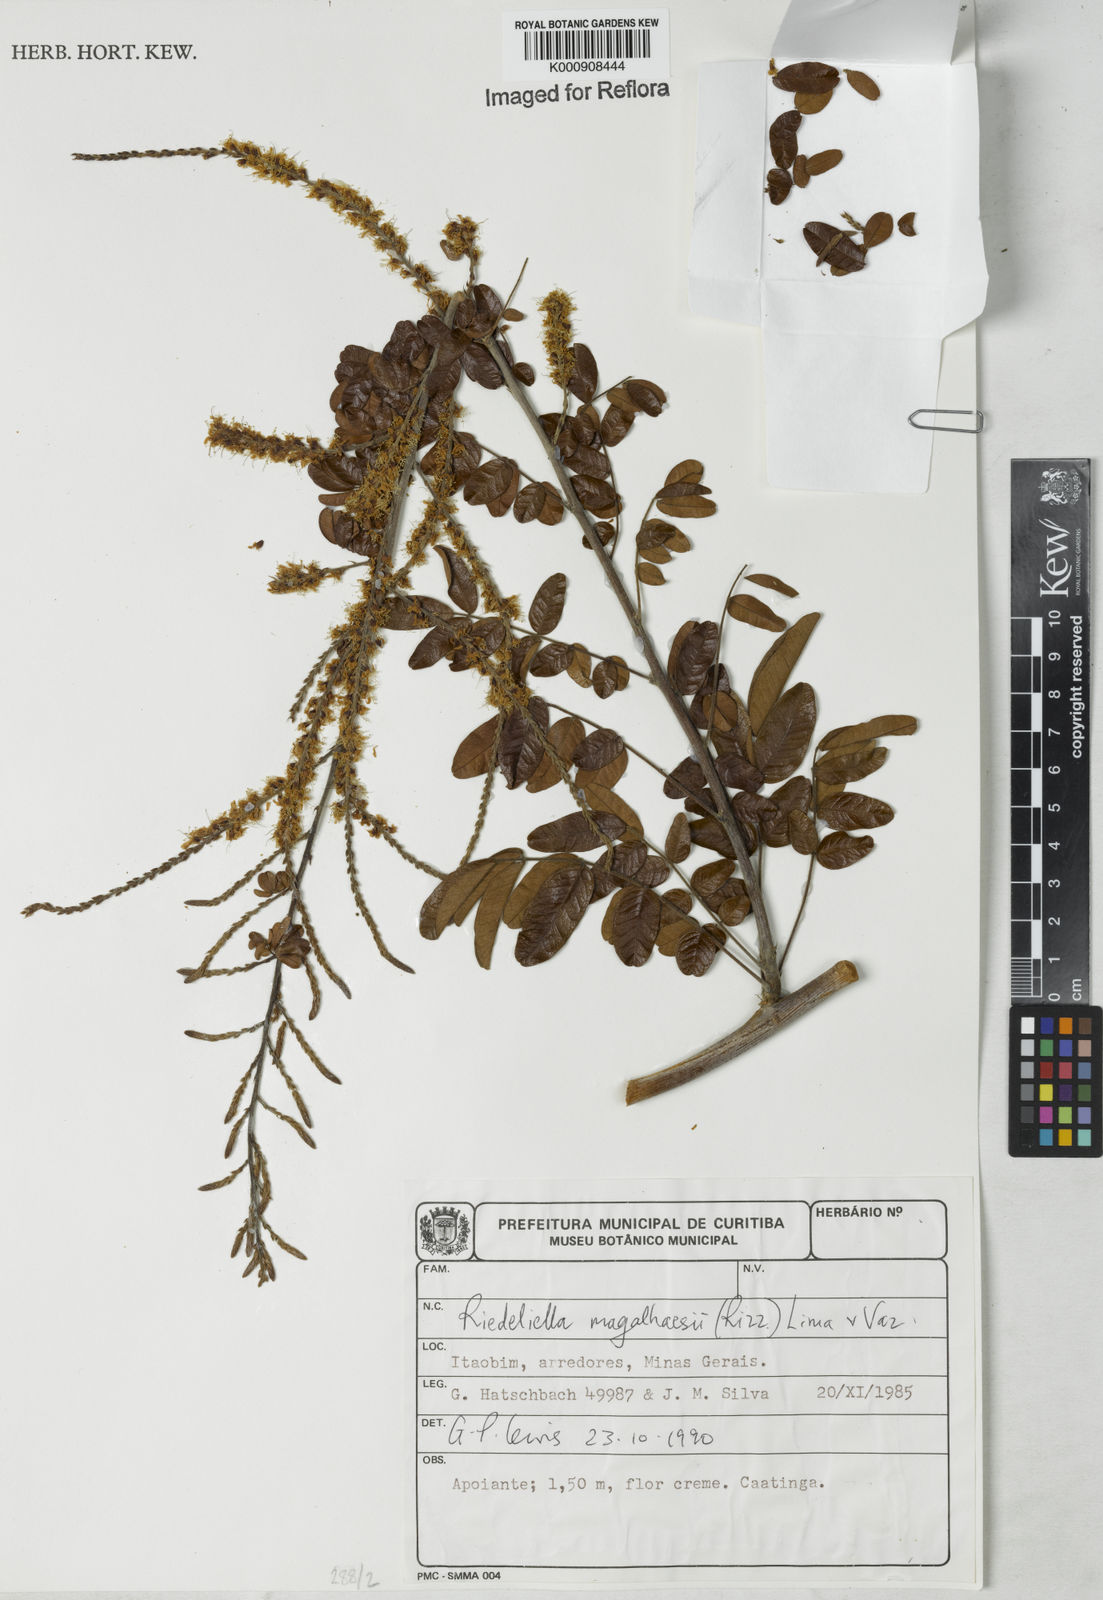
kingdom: Plantae
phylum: Tracheophyta
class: Magnoliopsida
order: Fabales
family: Fabaceae
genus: Riedeliella
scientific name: Riedeliella magalhaesii
